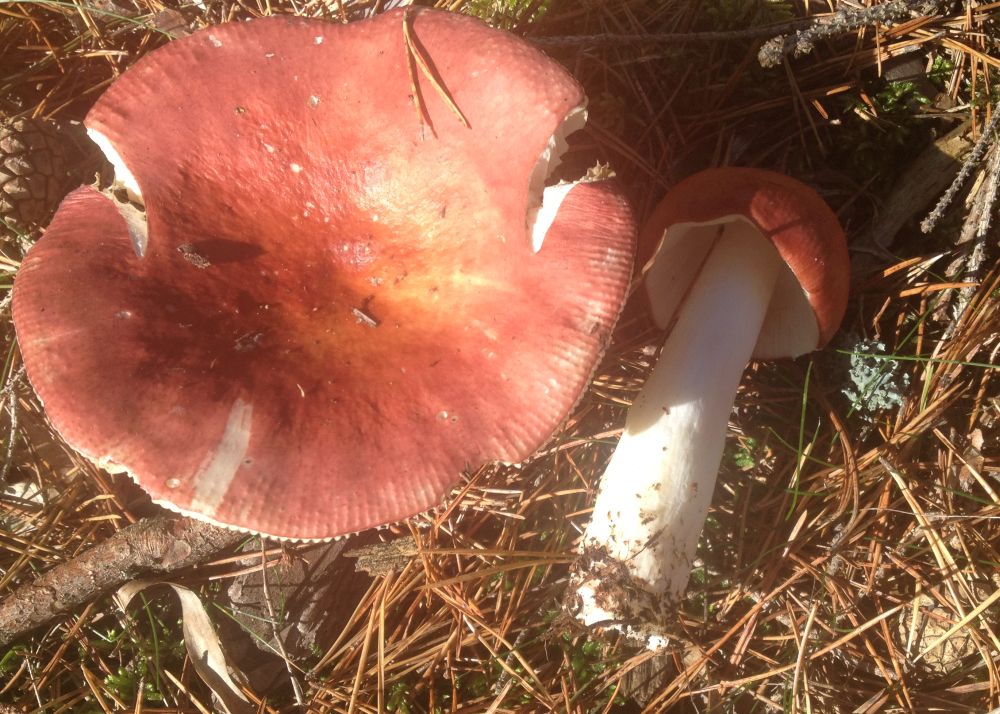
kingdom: Fungi
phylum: Basidiomycota
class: Agaricomycetes
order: Russulales
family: Russulaceae
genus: Russula
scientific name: Russula paludosa
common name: prægtig skørhat
